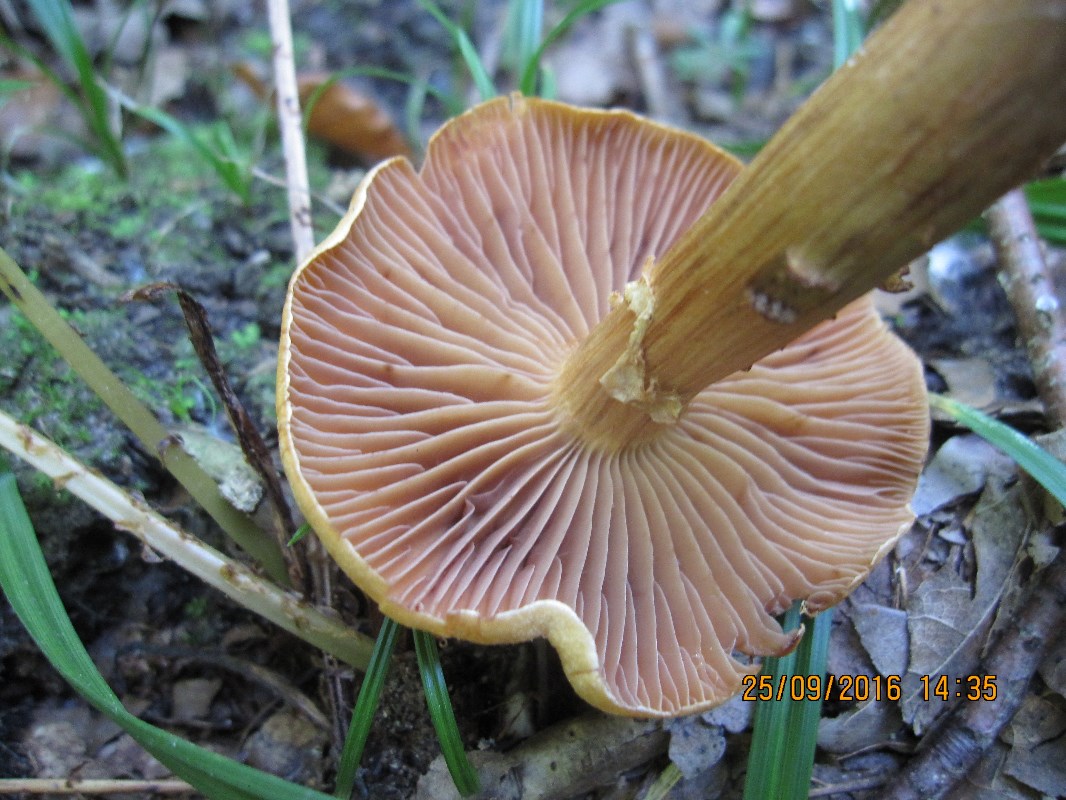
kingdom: Fungi
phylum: Basidiomycota
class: Agaricomycetes
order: Agaricales
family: Cortinariaceae
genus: Cortinarius
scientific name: Cortinarius hinnuleus
